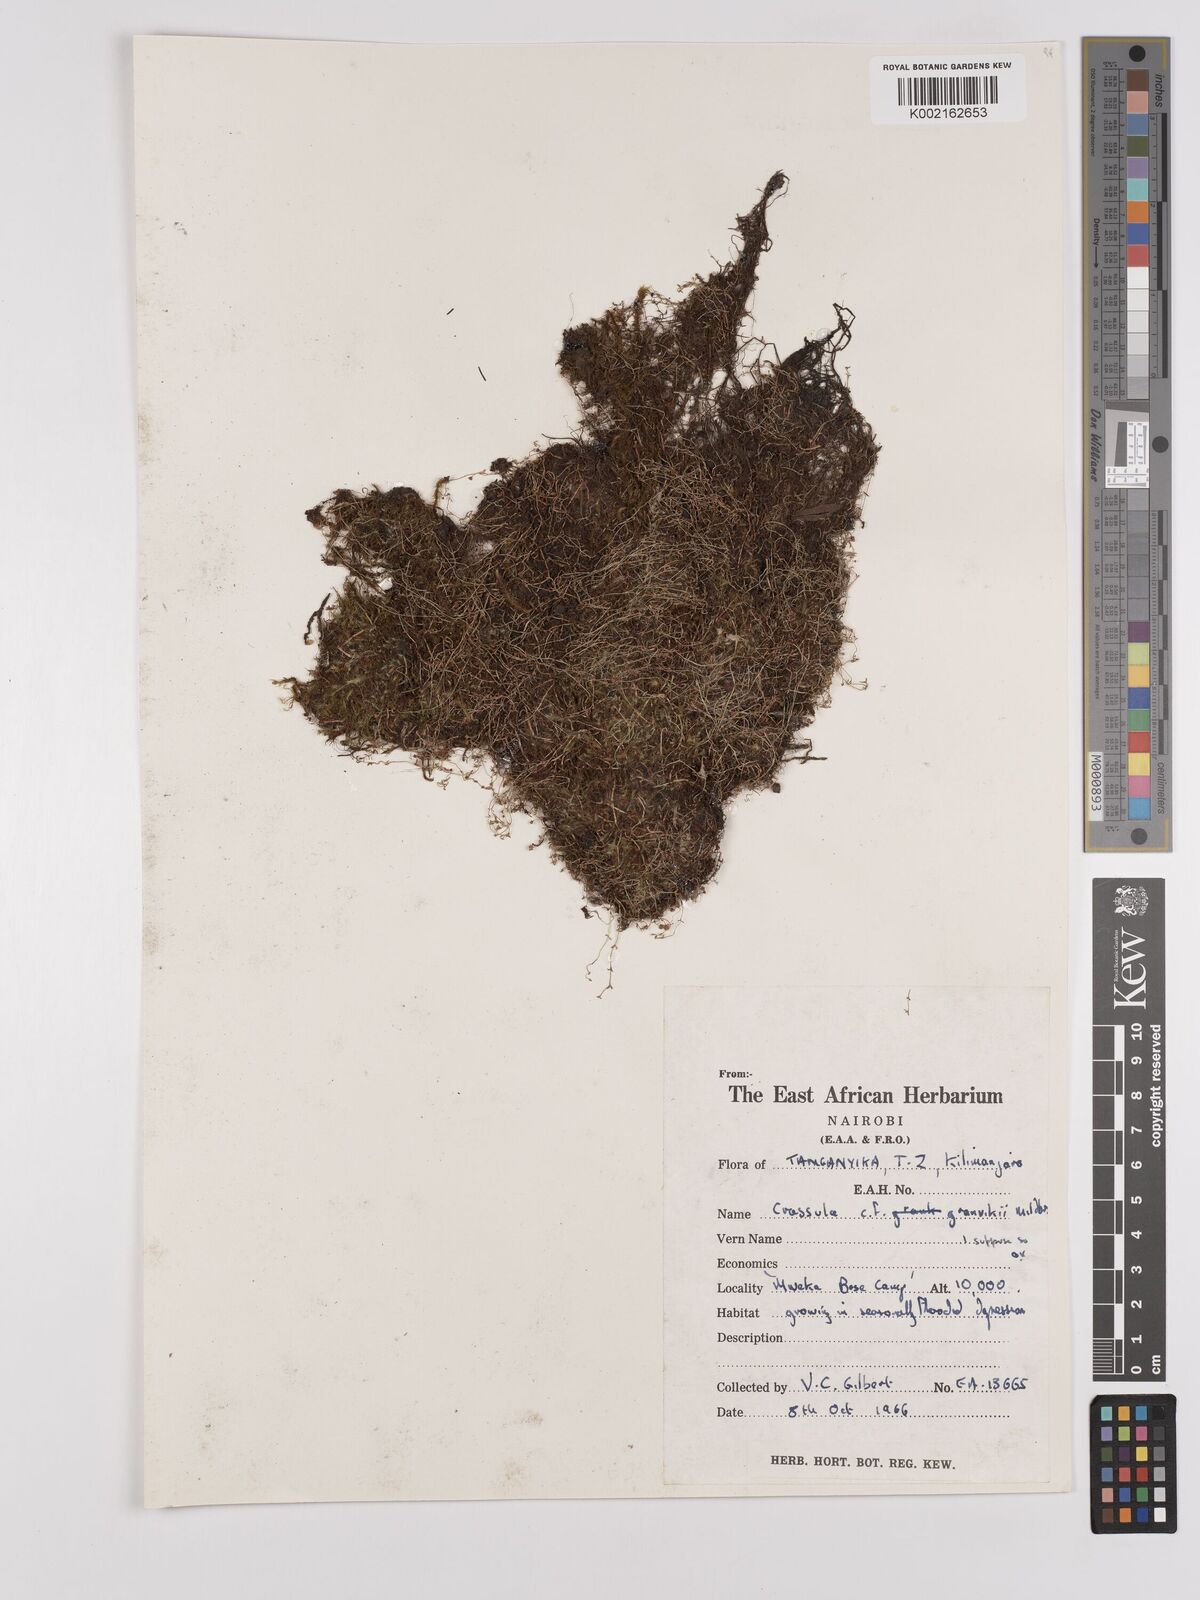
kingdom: Plantae
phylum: Tracheophyta
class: Magnoliopsida
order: Saxifragales
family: Crassulaceae
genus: Crassula
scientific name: Crassula granvikii
